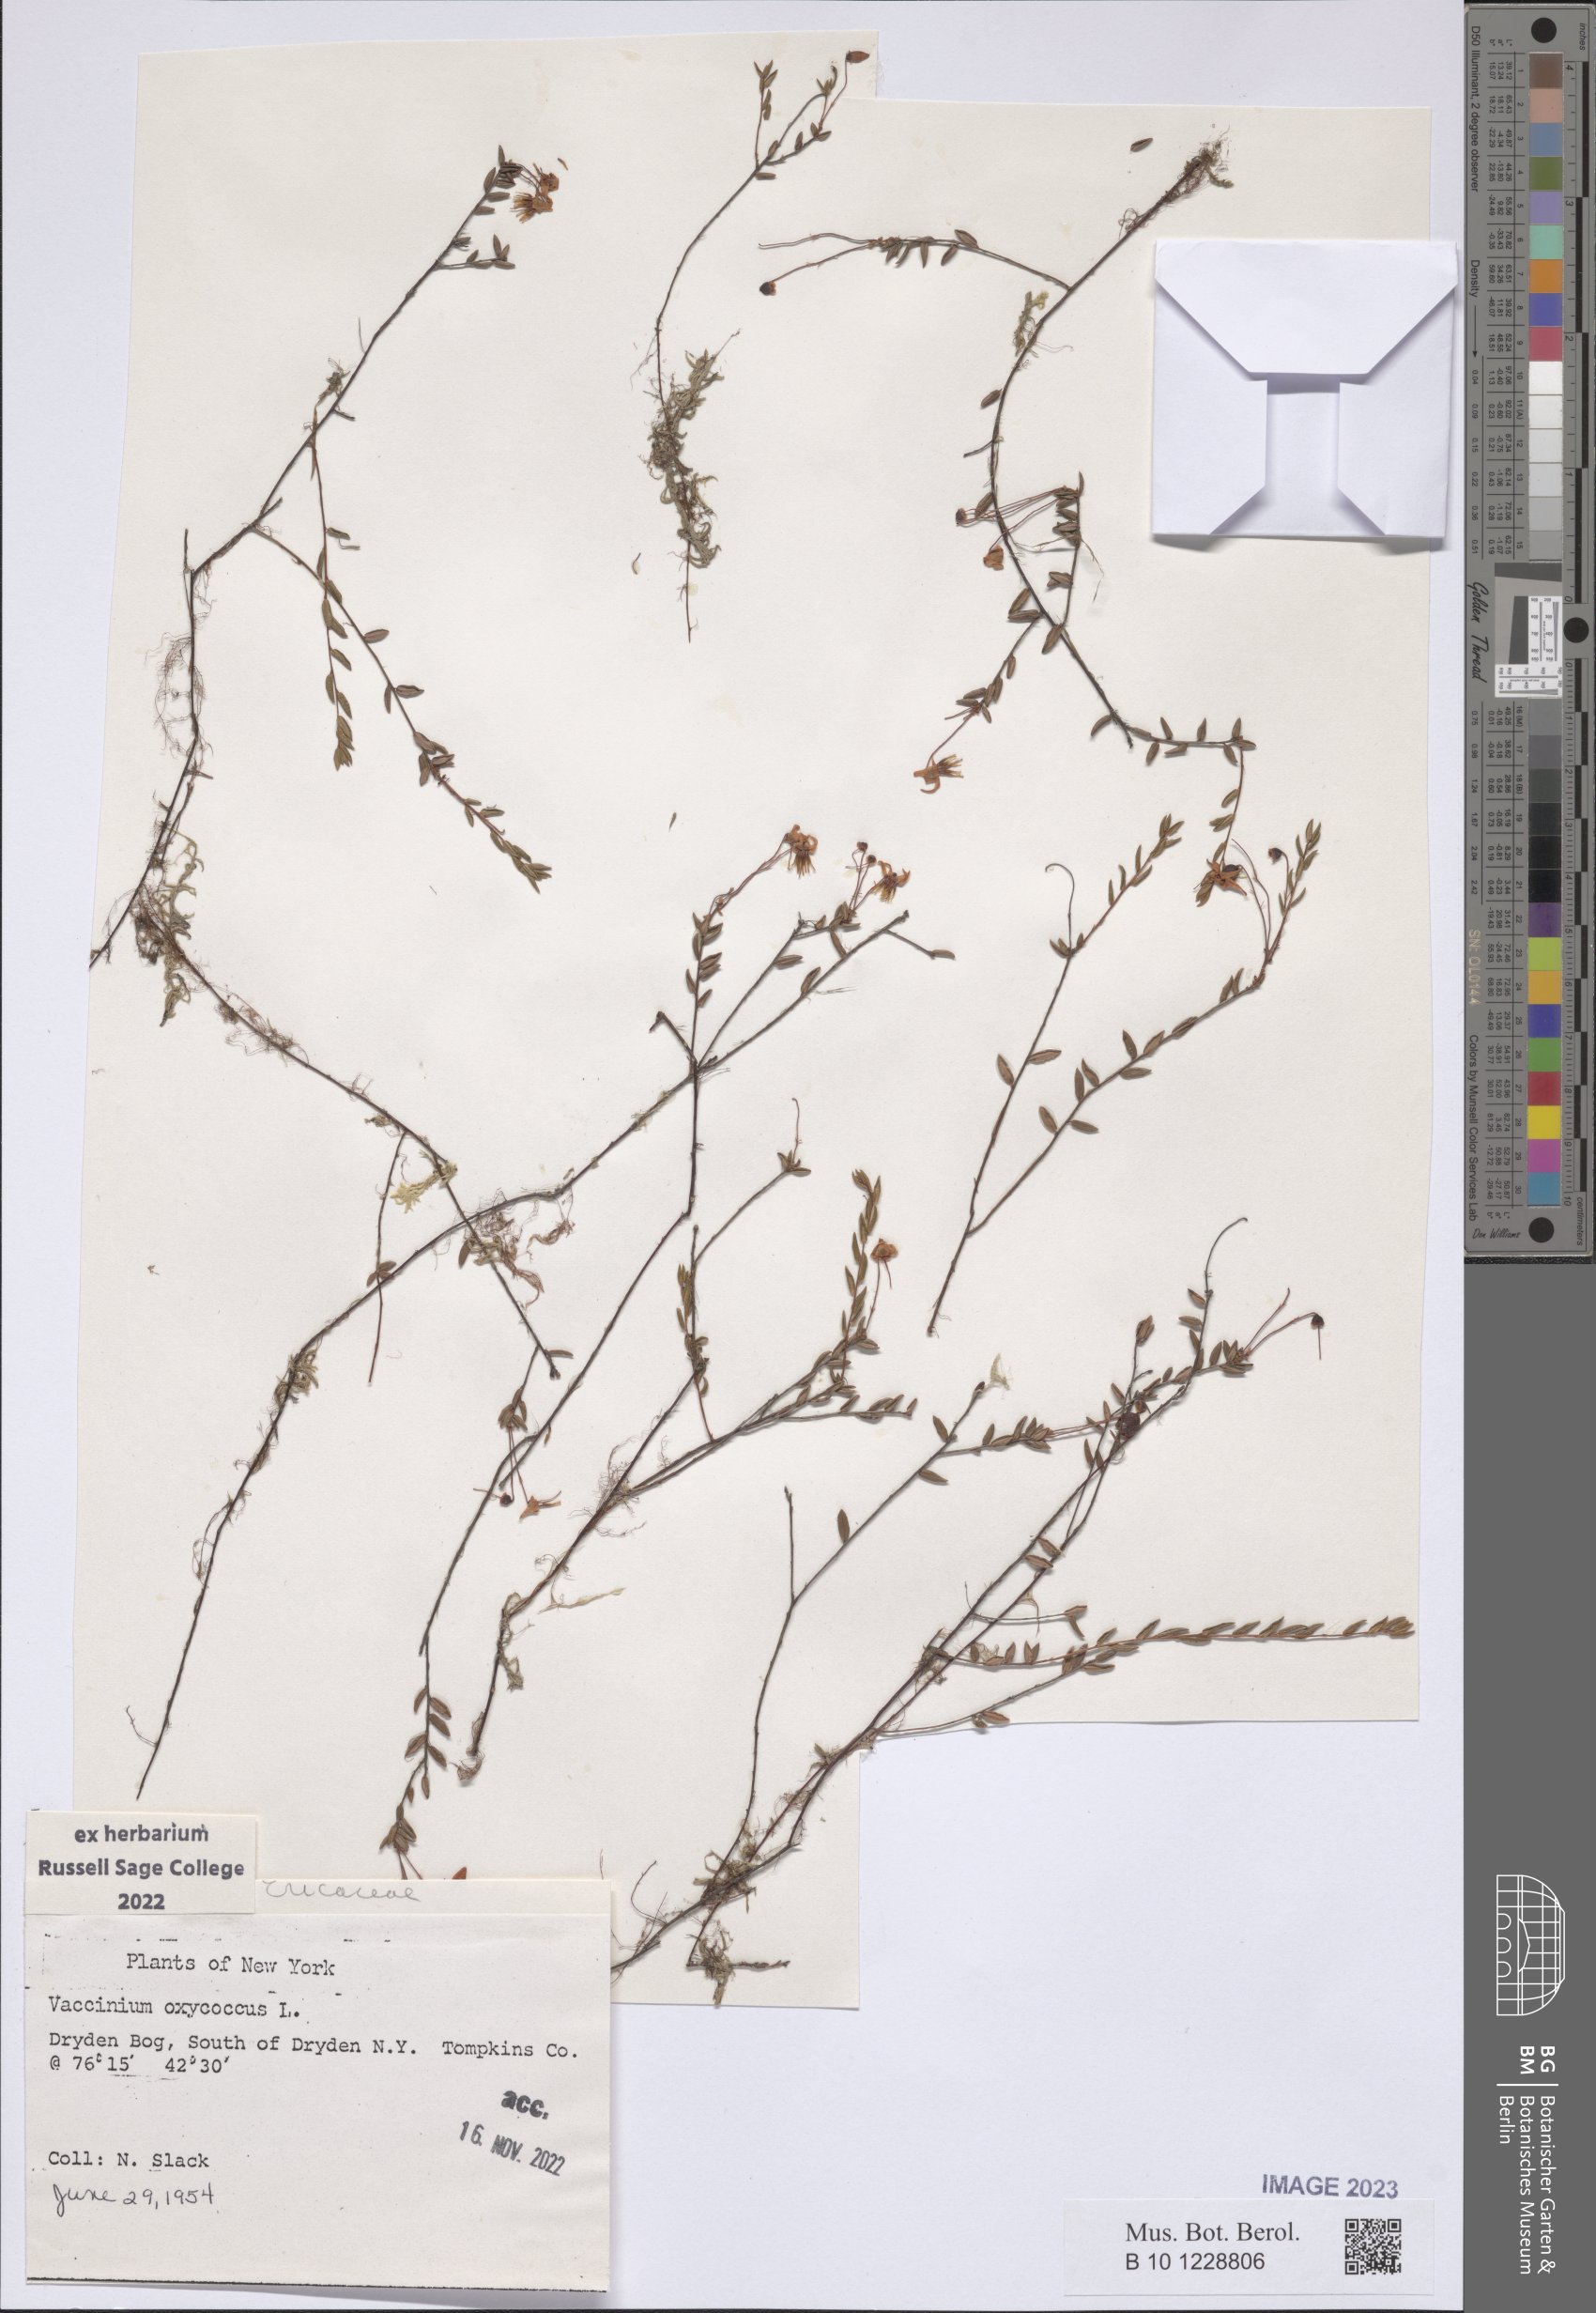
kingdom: Plantae
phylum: Tracheophyta
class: Magnoliopsida
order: Ericales
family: Ericaceae
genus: Vaccinium
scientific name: Vaccinium oxycoccos
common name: Cranberry
